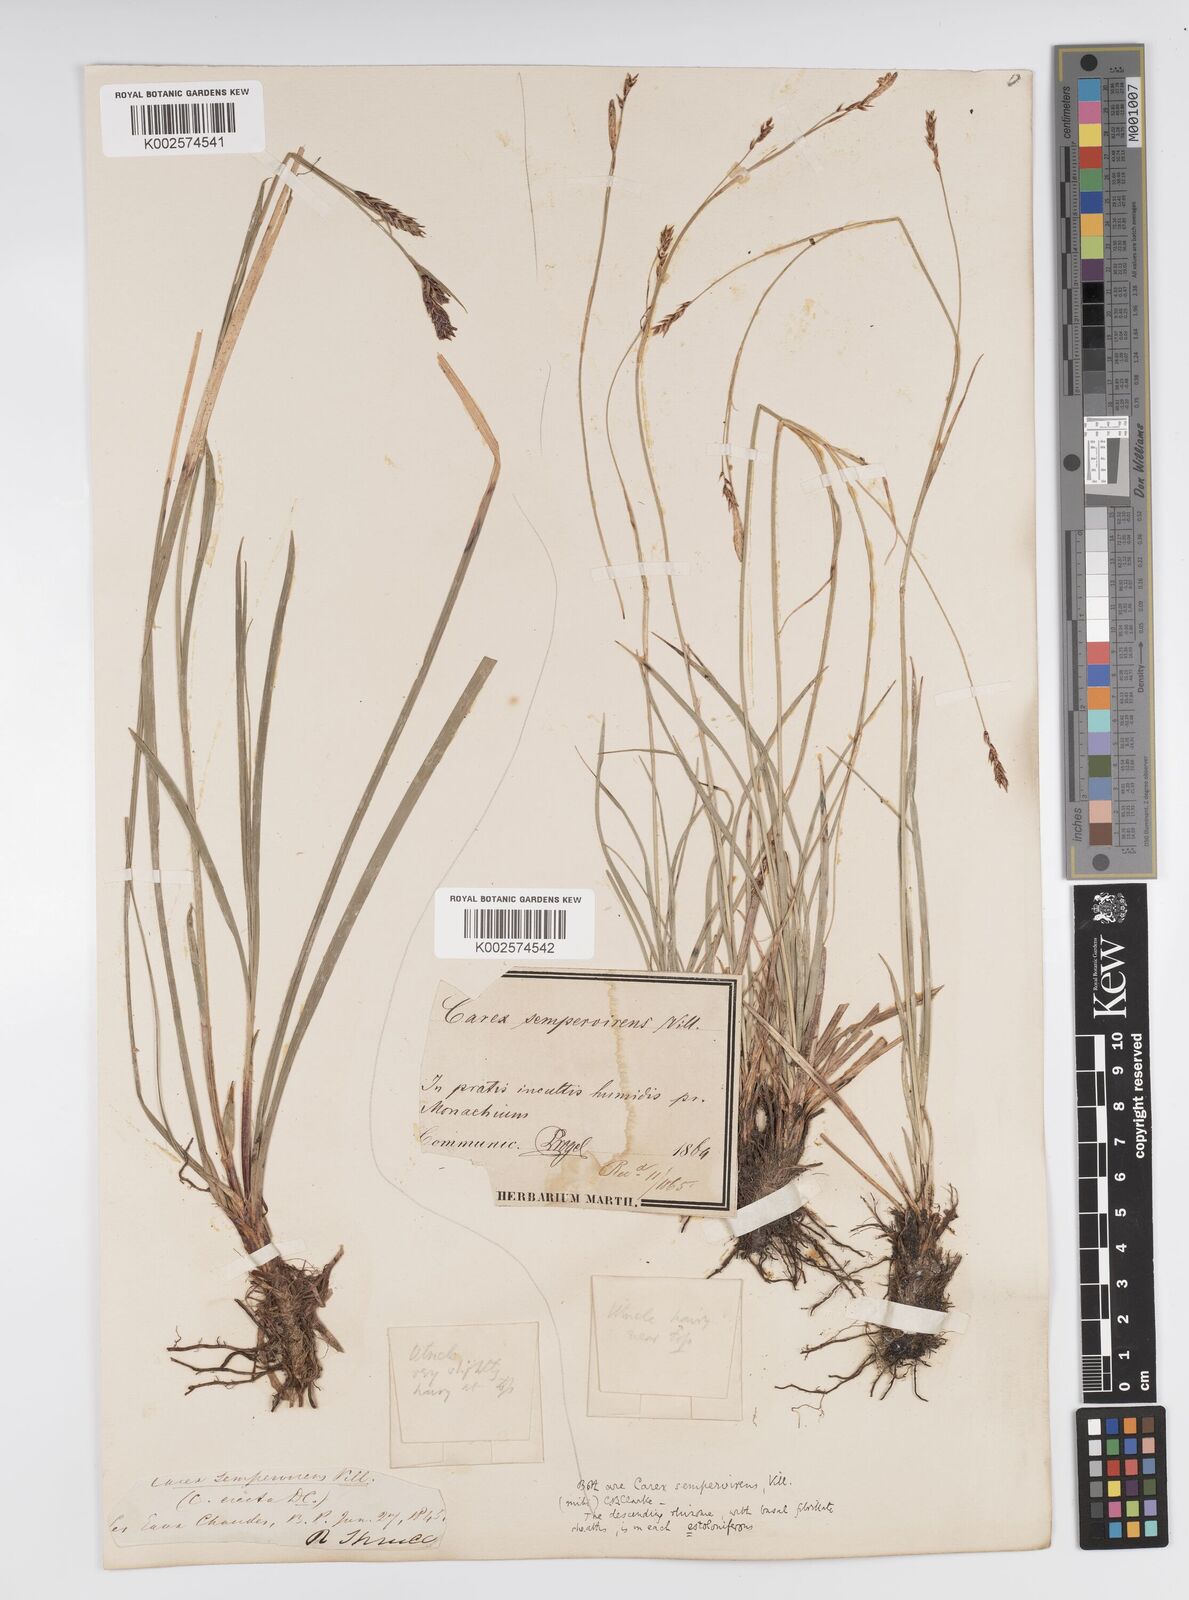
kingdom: Plantae
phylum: Tracheophyta
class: Liliopsida
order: Poales
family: Cyperaceae
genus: Carex
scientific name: Carex sempervirens
